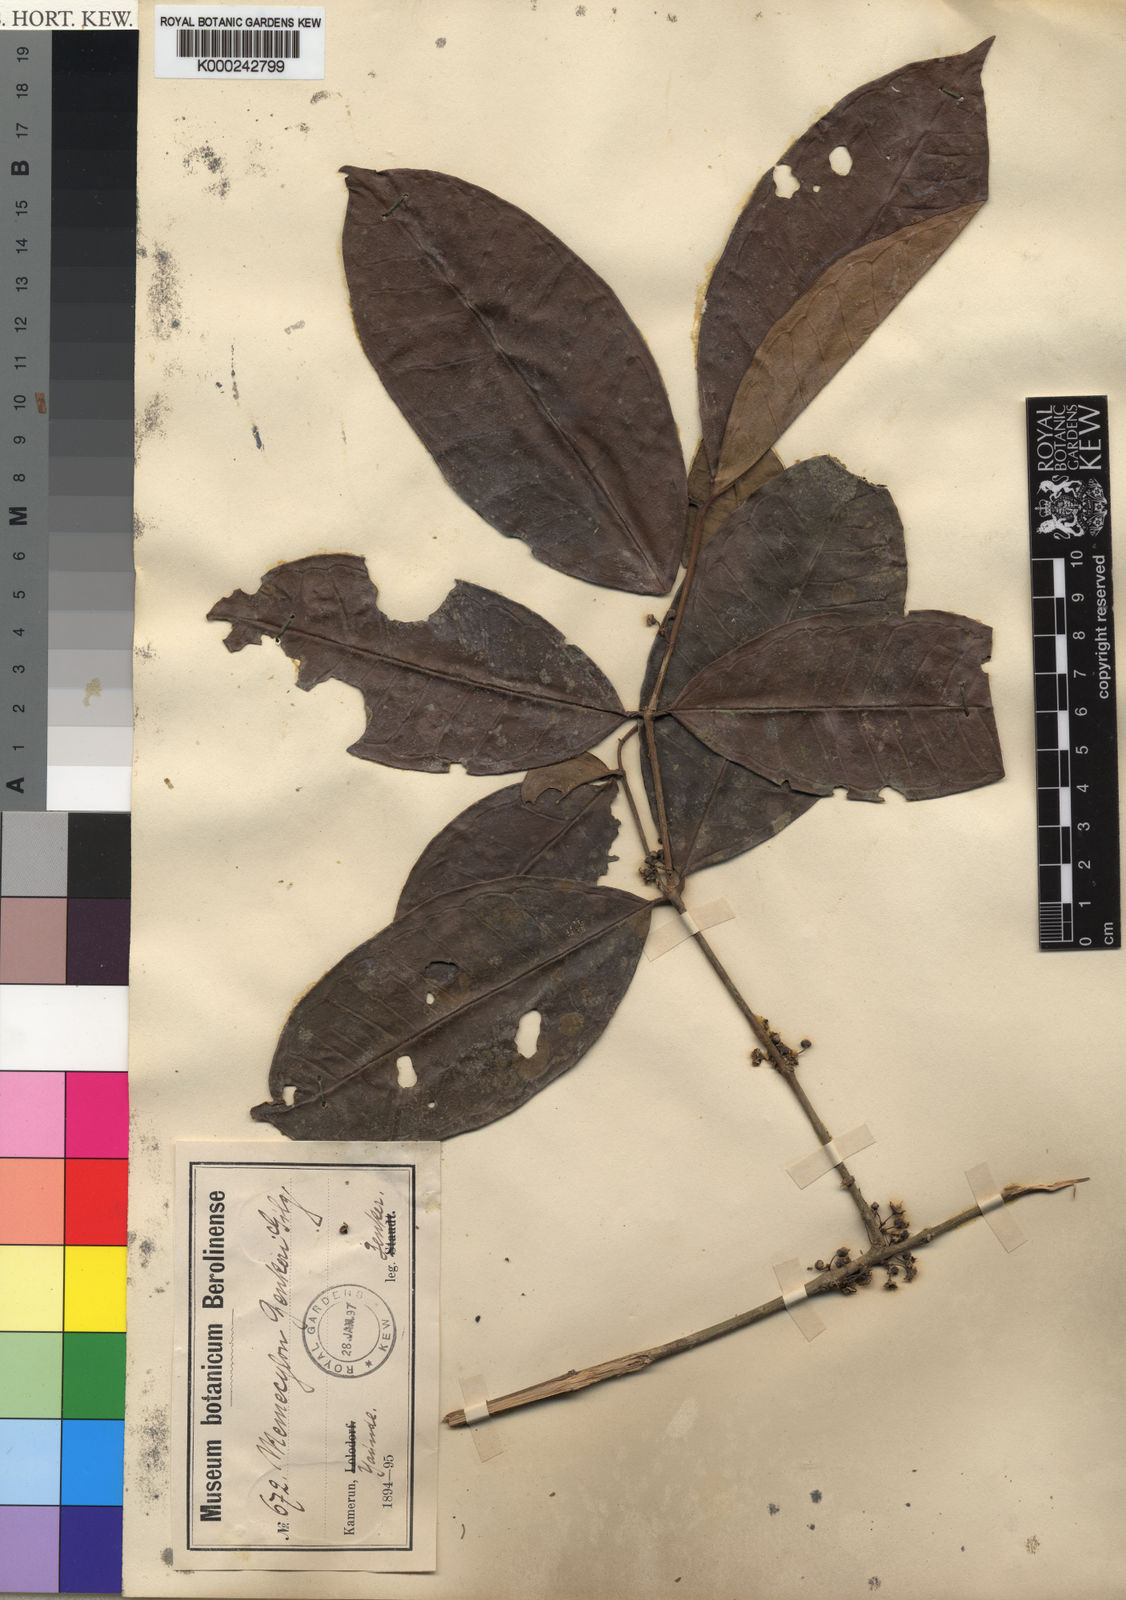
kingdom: Plantae
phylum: Tracheophyta
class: Magnoliopsida
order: Myrtales
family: Melastomataceae
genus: Memecylon
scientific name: Memecylon zenkeri
